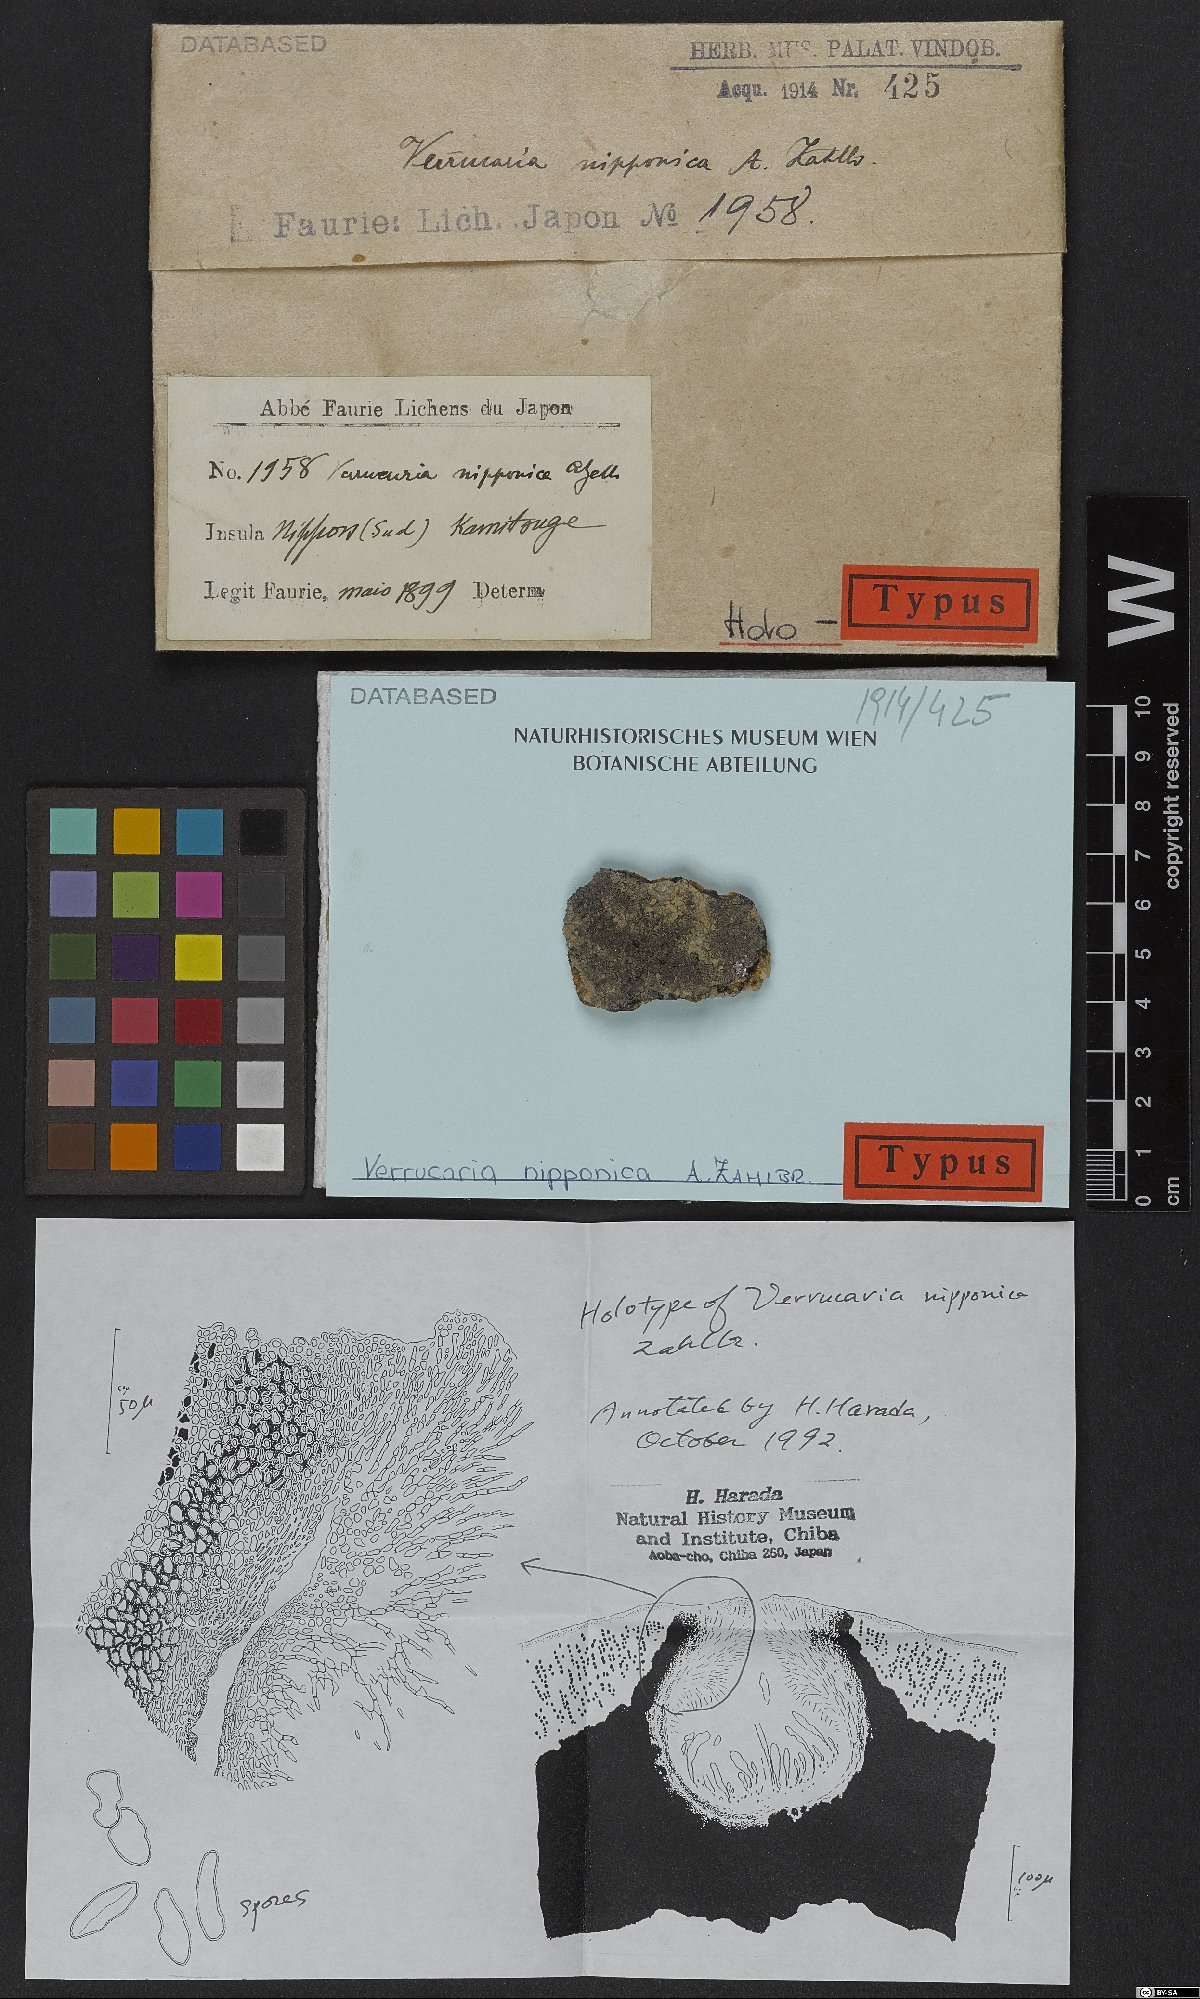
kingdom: Fungi
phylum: Ascomycota
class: Eurotiomycetes
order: Verrucariales
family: Verrucariaceae
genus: Verrucaria
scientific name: Verrucaria nipponica
